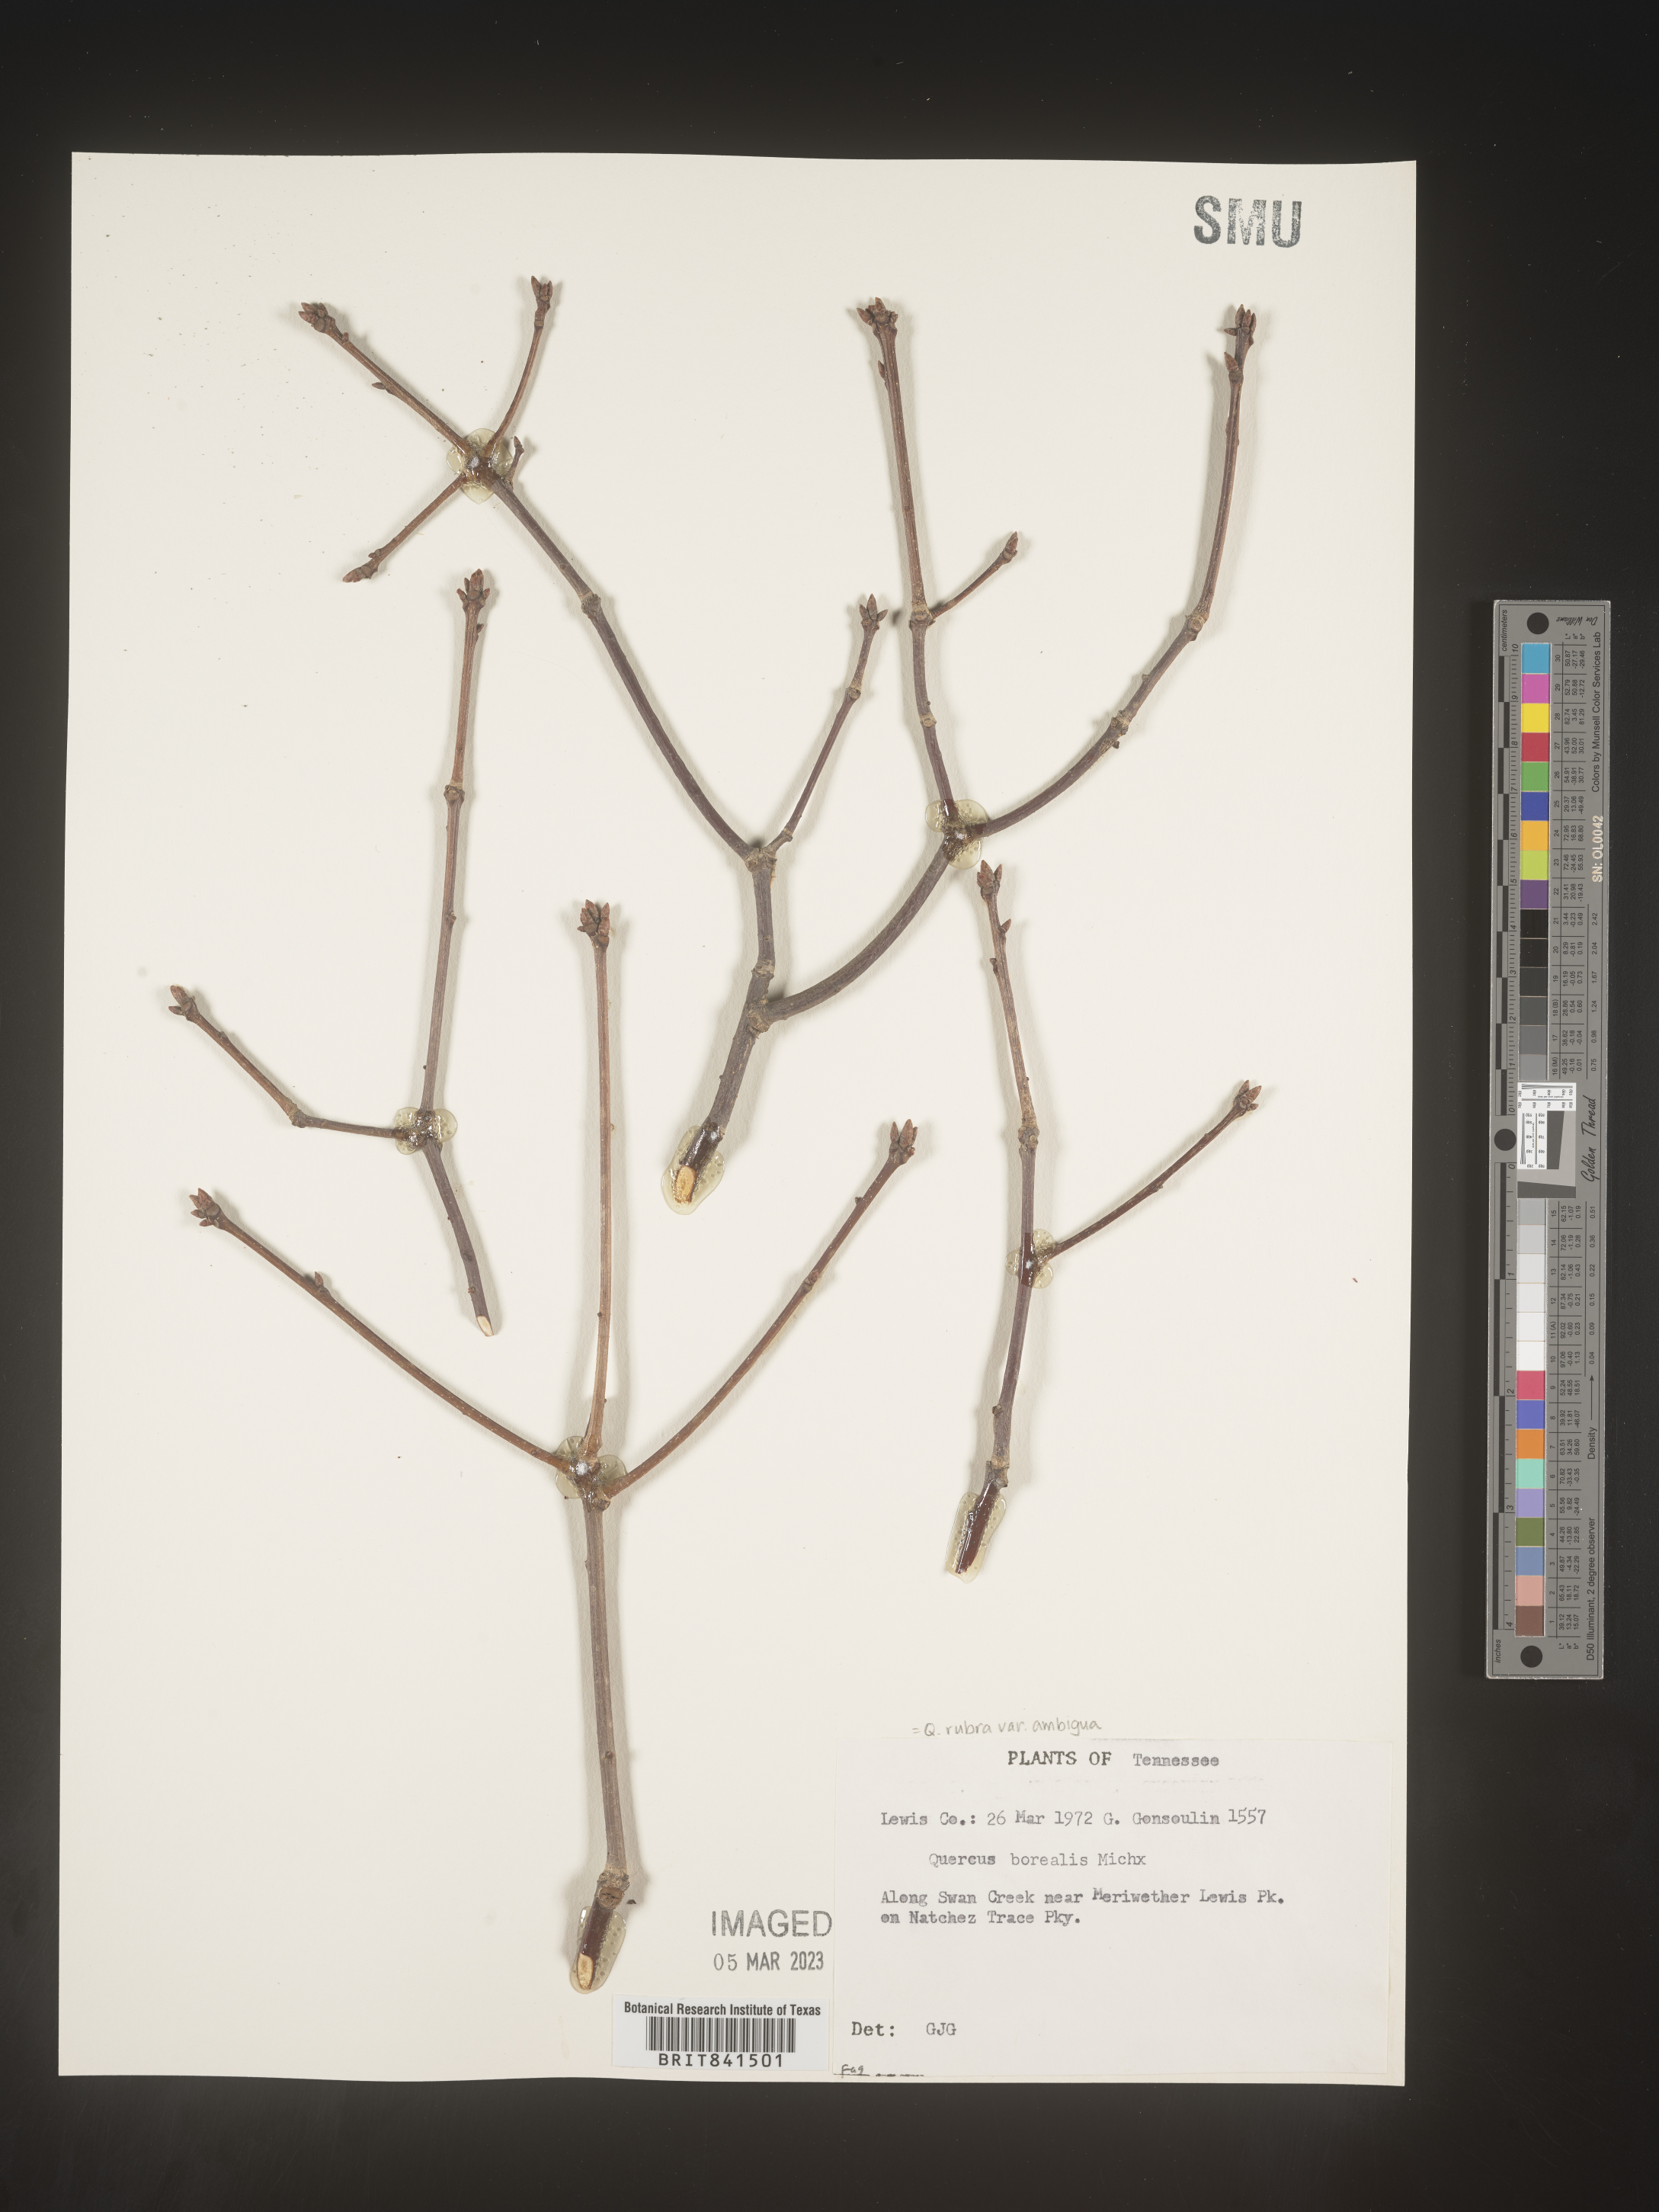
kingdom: Plantae
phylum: Tracheophyta
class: Magnoliopsida
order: Fagales
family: Fagaceae
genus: Quercus
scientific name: Quercus rubra
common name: Red oak
